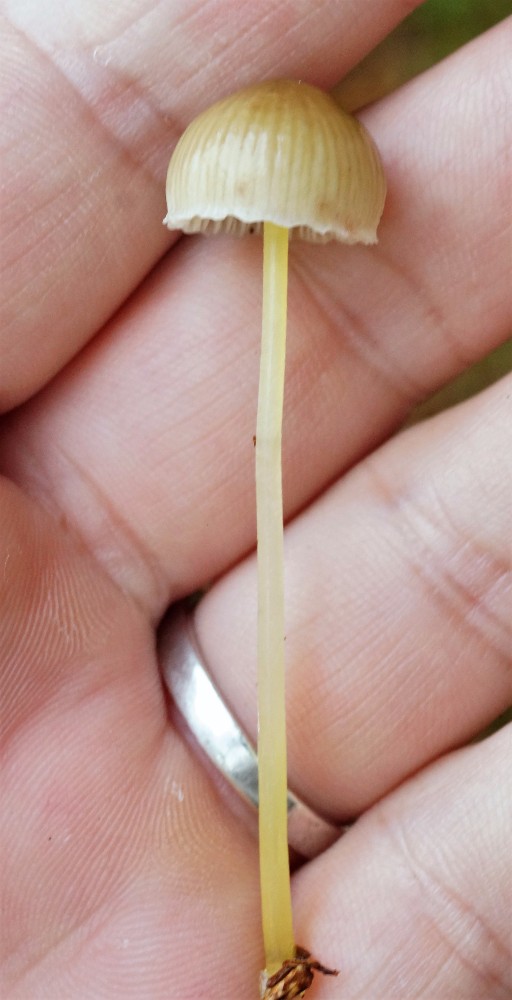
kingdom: Fungi
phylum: Basidiomycota
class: Agaricomycetes
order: Agaricales
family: Mycenaceae
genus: Mycena
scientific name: Mycena epipterygia
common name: gulstokket huesvamp
